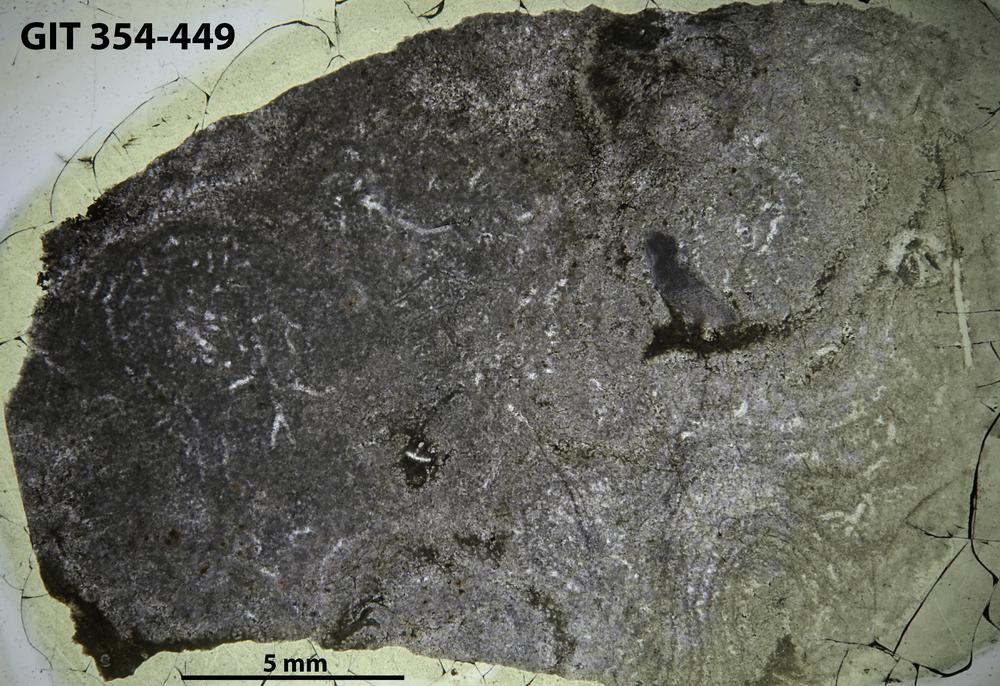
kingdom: Animalia
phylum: Porifera
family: Clathrodictyidae
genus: Clathrodictyon
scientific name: Clathrodictyon Stromatopora variolaris
